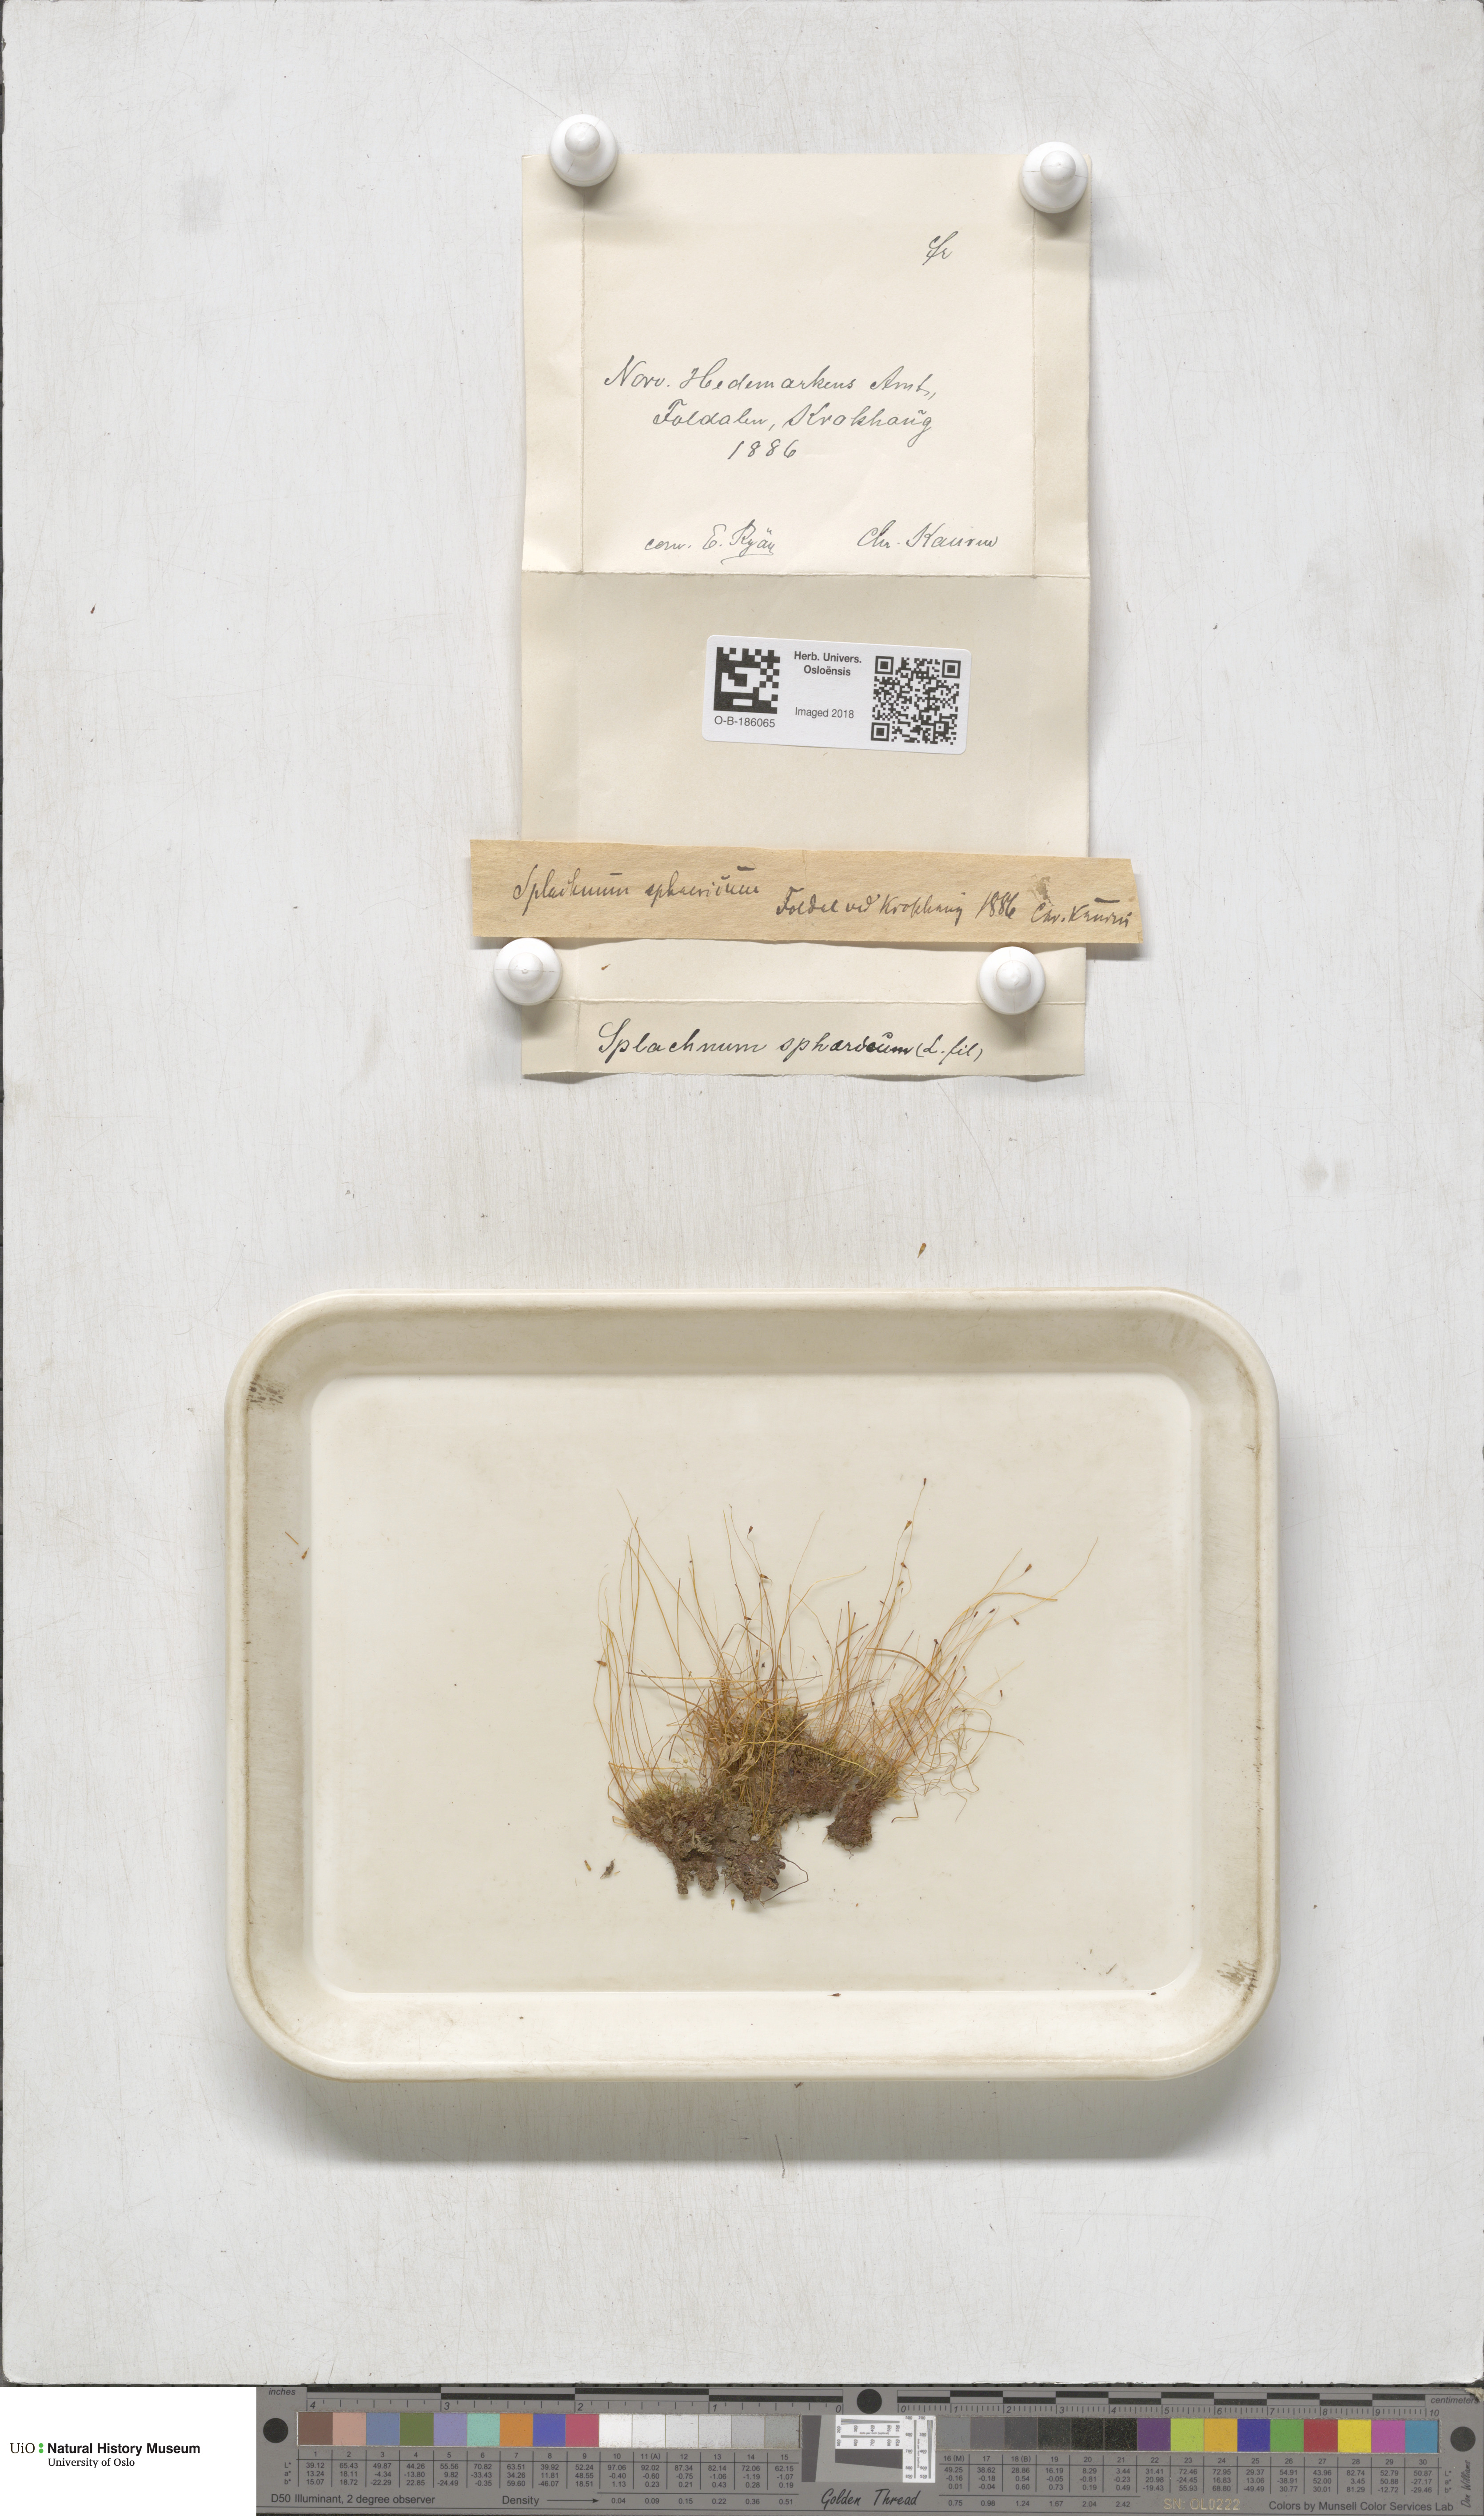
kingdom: Plantae
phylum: Bryophyta
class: Bryopsida
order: Splachnales
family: Splachnaceae
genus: Splachnum
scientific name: Splachnum sphaericum
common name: Round-fruited dung moss
